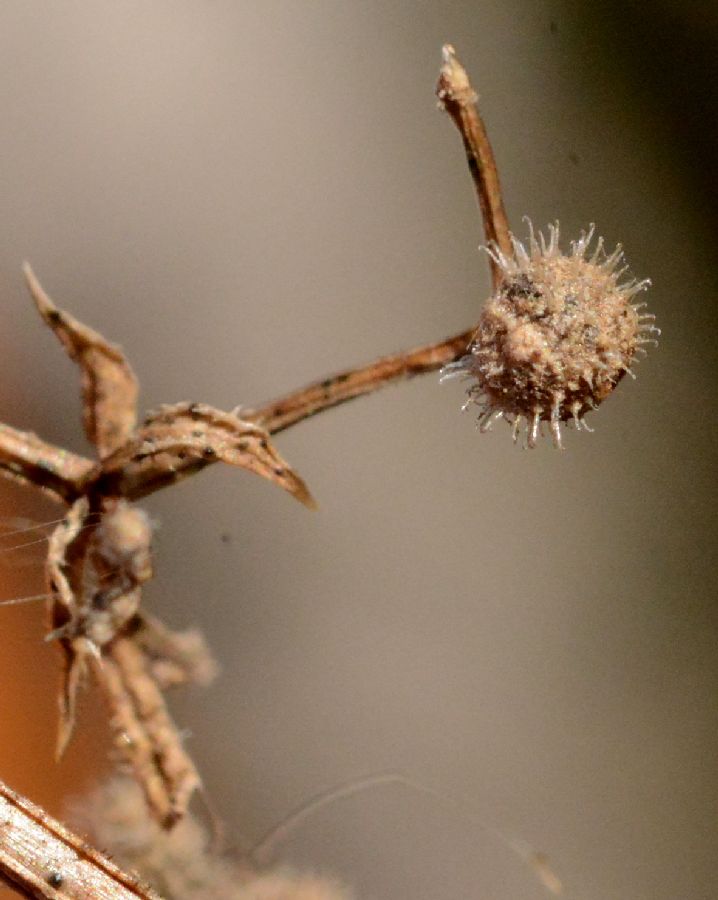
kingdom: Plantae
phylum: Tracheophyta
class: Magnoliopsida
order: Gentianales
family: Rubiaceae
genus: Galium
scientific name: Galium spurium
